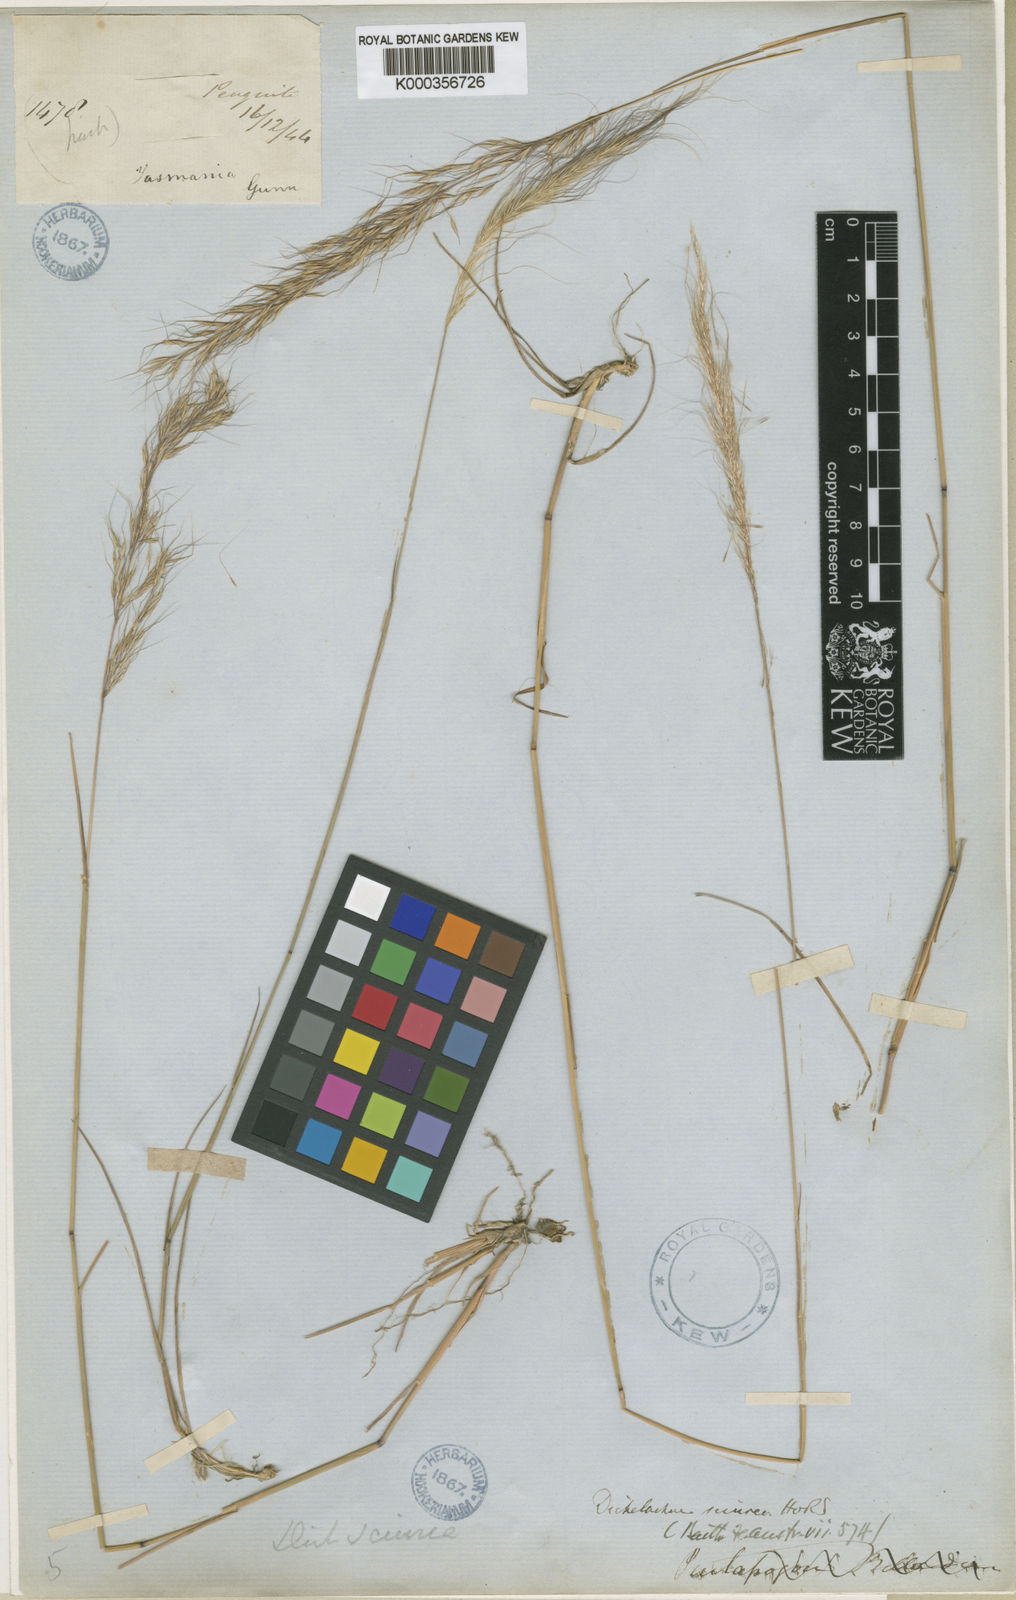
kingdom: Plantae
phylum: Tracheophyta
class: Liliopsida
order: Poales
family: Poaceae
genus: Dichelachne
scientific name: Dichelachne sieberiana
